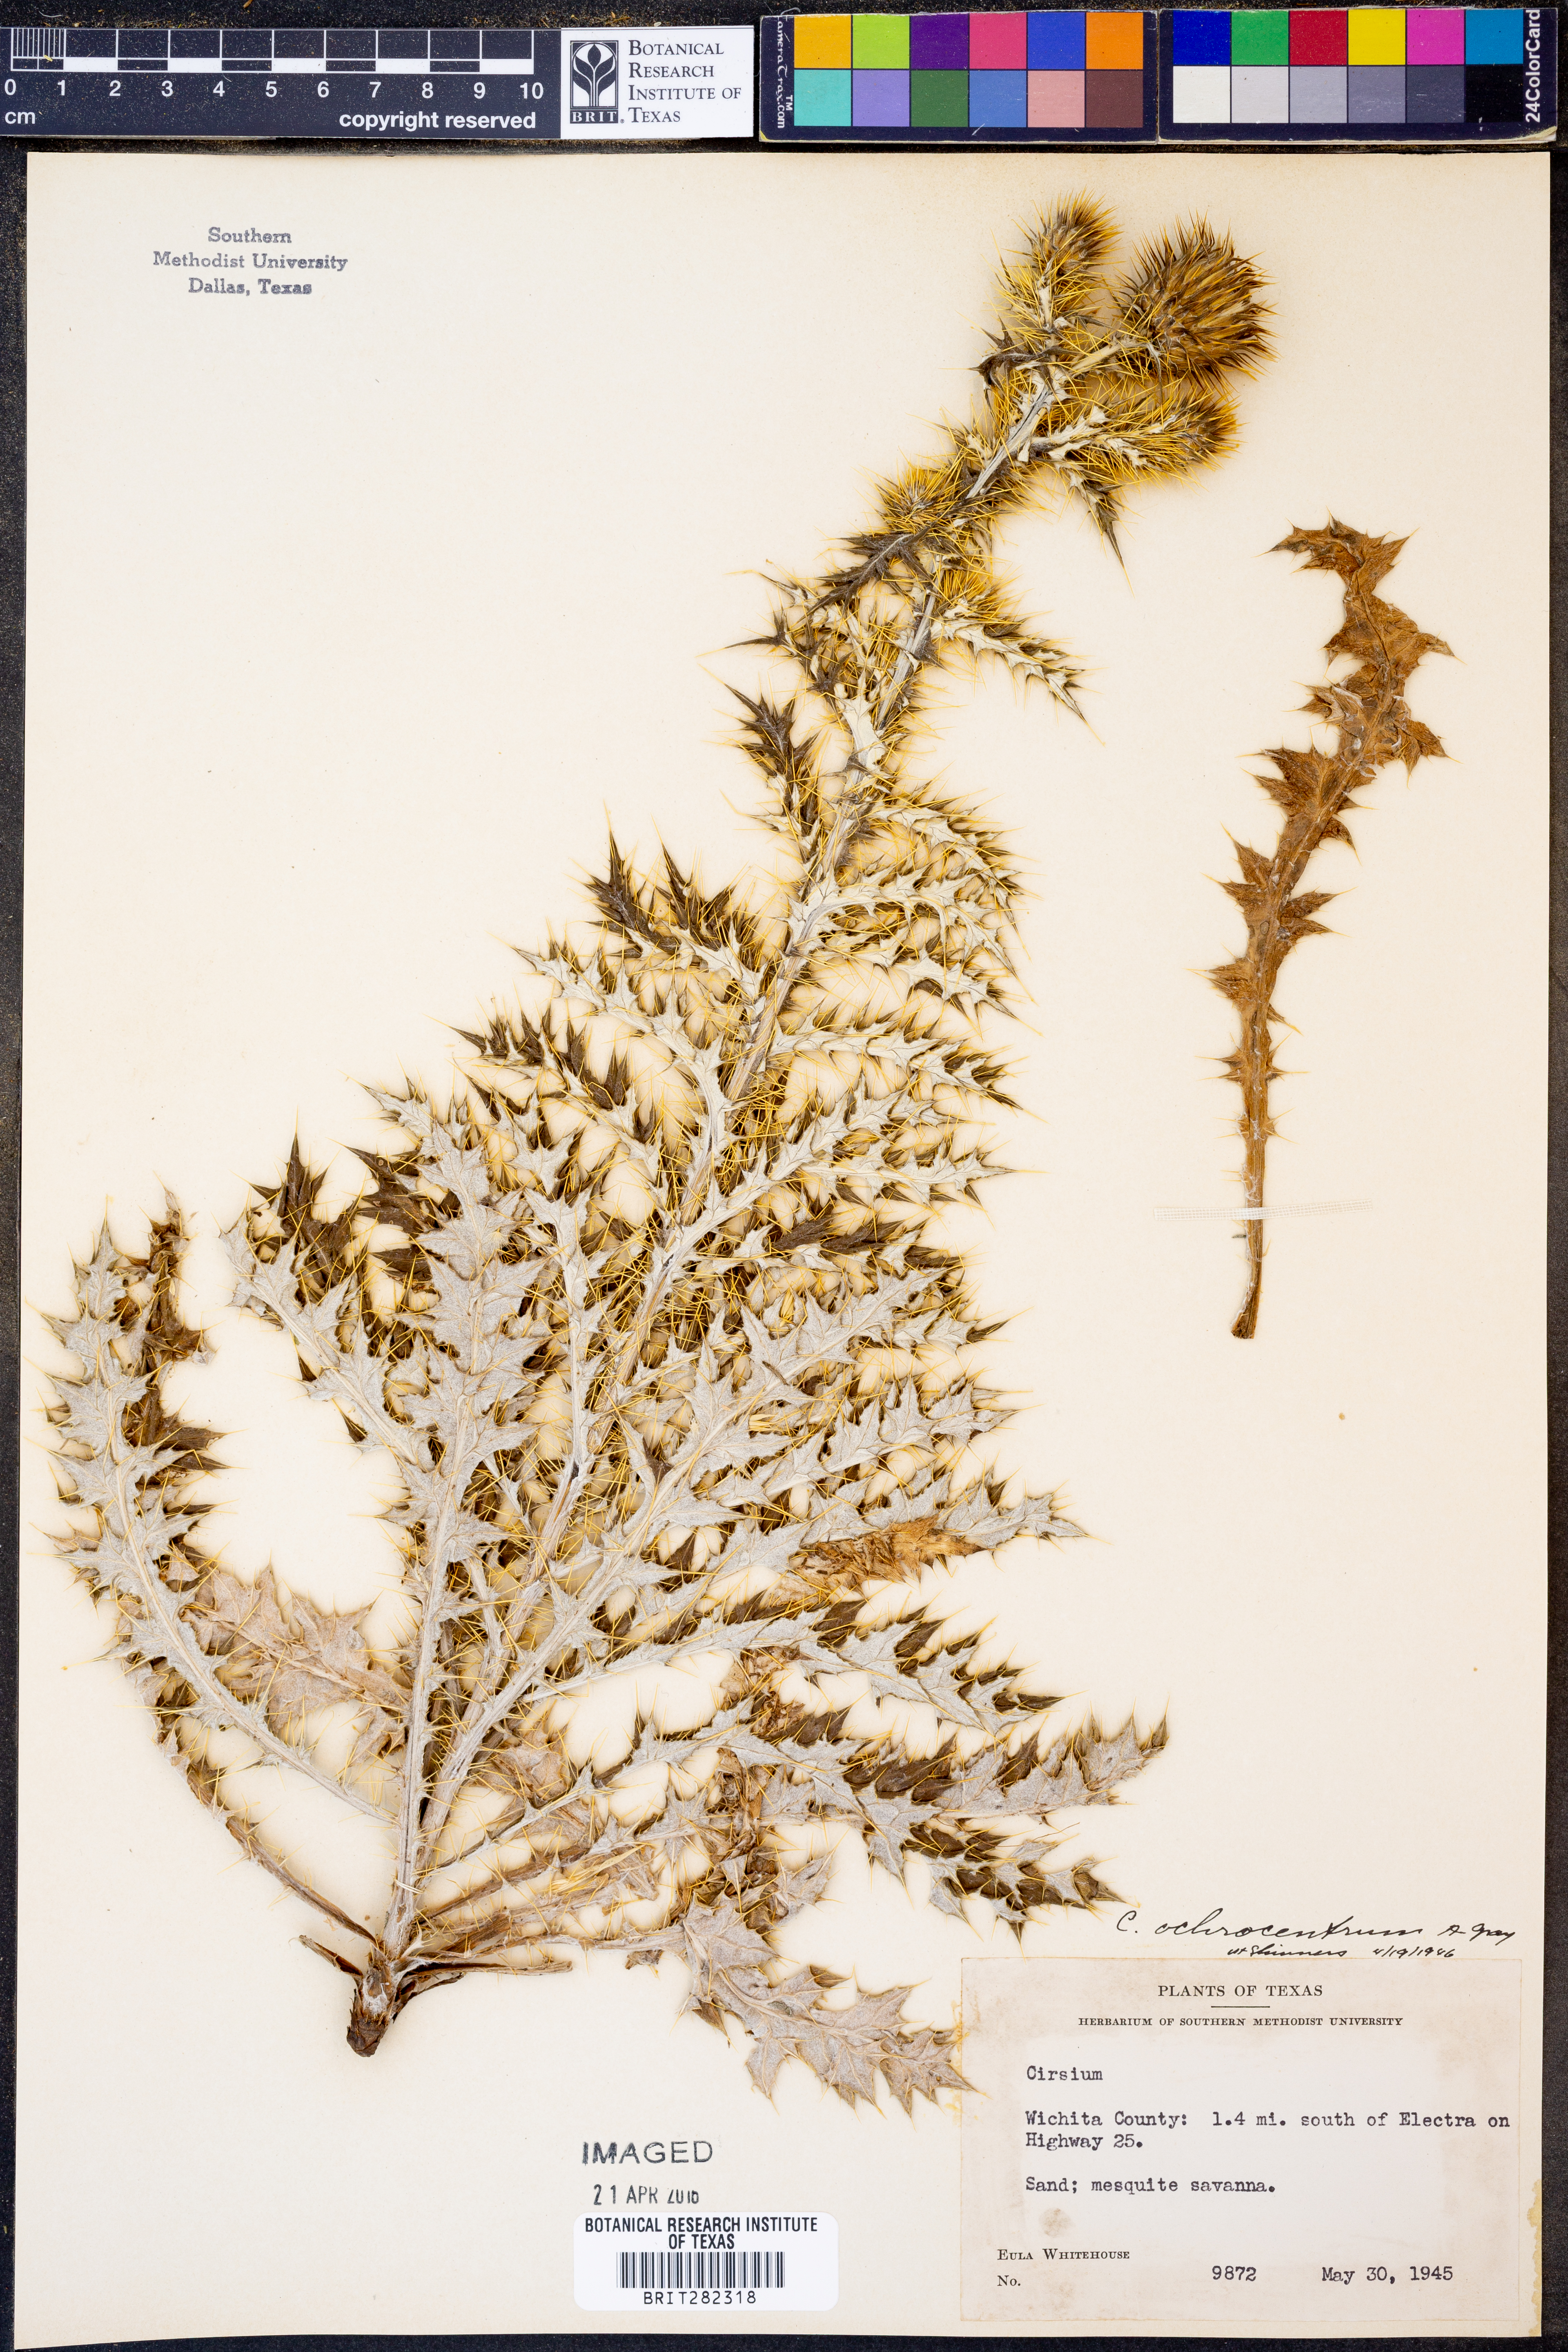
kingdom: Plantae
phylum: Tracheophyta
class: Magnoliopsida
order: Asterales
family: Asteraceae
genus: Cirsium
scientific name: Cirsium ochrocentrum
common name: Yellow-spine thistle
